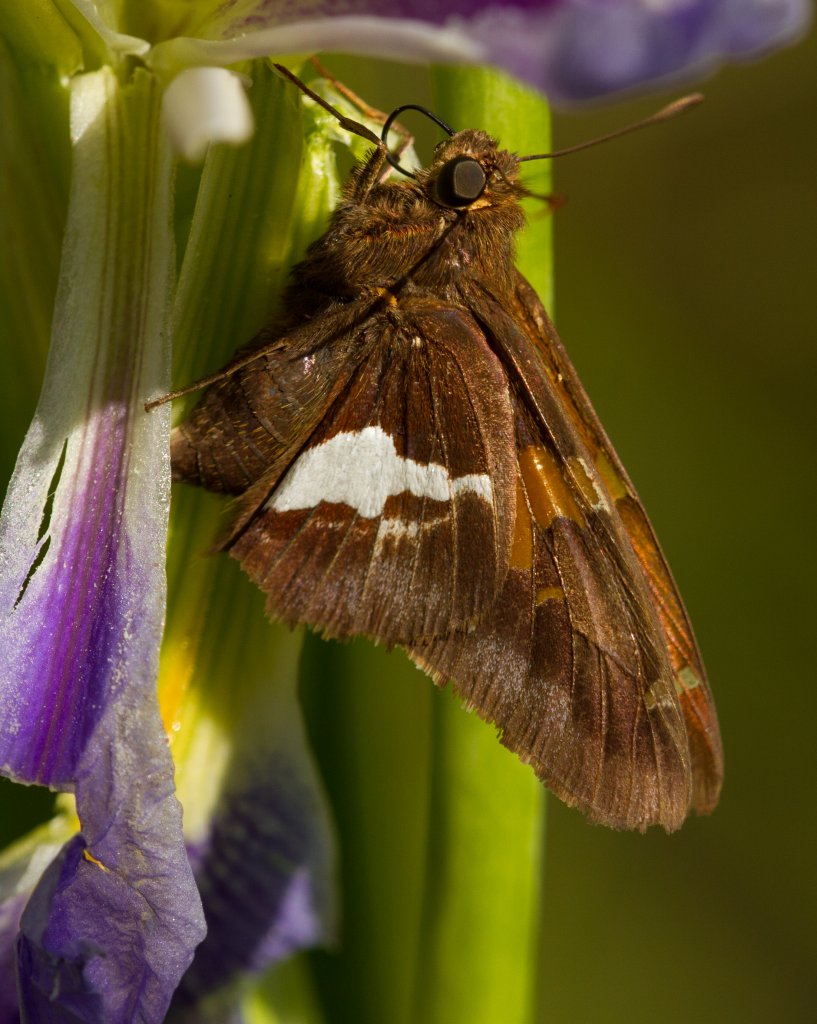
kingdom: Animalia
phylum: Arthropoda
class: Insecta
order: Lepidoptera
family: Hesperiidae
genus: Epargyreus
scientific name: Epargyreus clarus
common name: Silver-spotted Skipper
